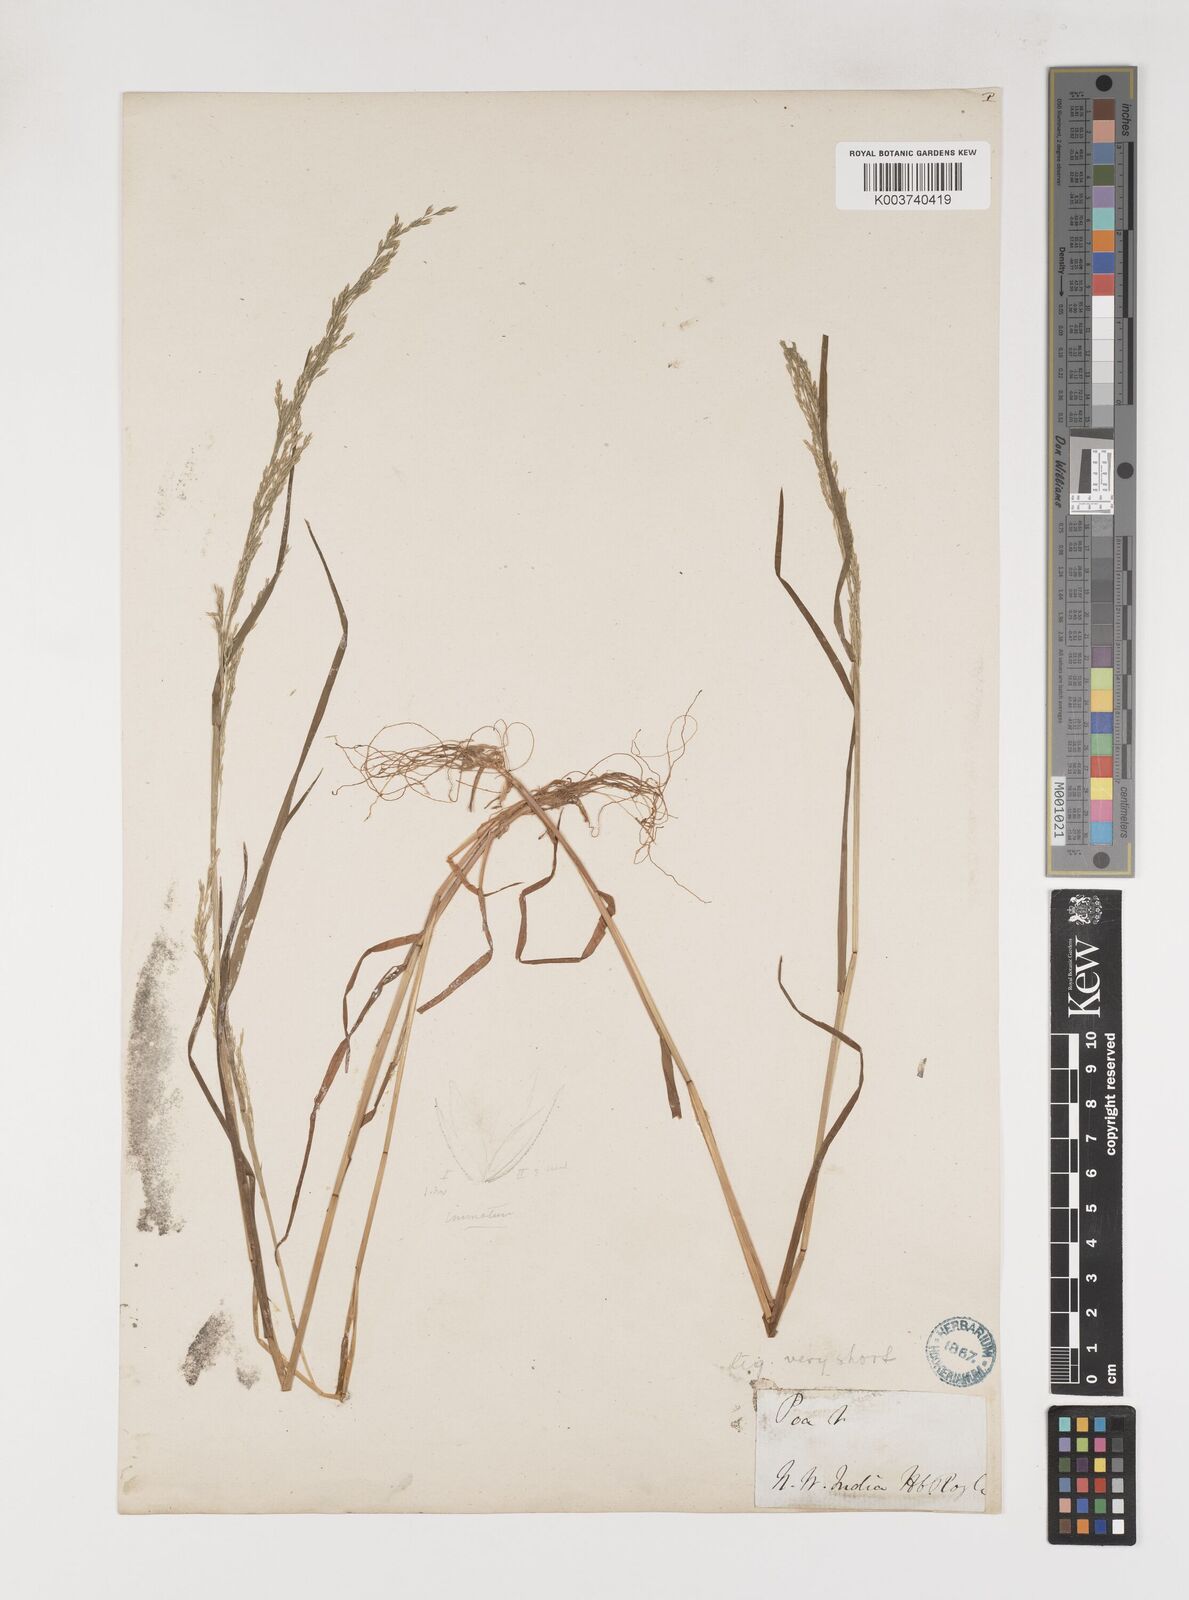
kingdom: Plantae
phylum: Tracheophyta
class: Liliopsida
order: Poales
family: Poaceae
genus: Poa
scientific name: Poa nemoralis
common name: Wood bluegrass
